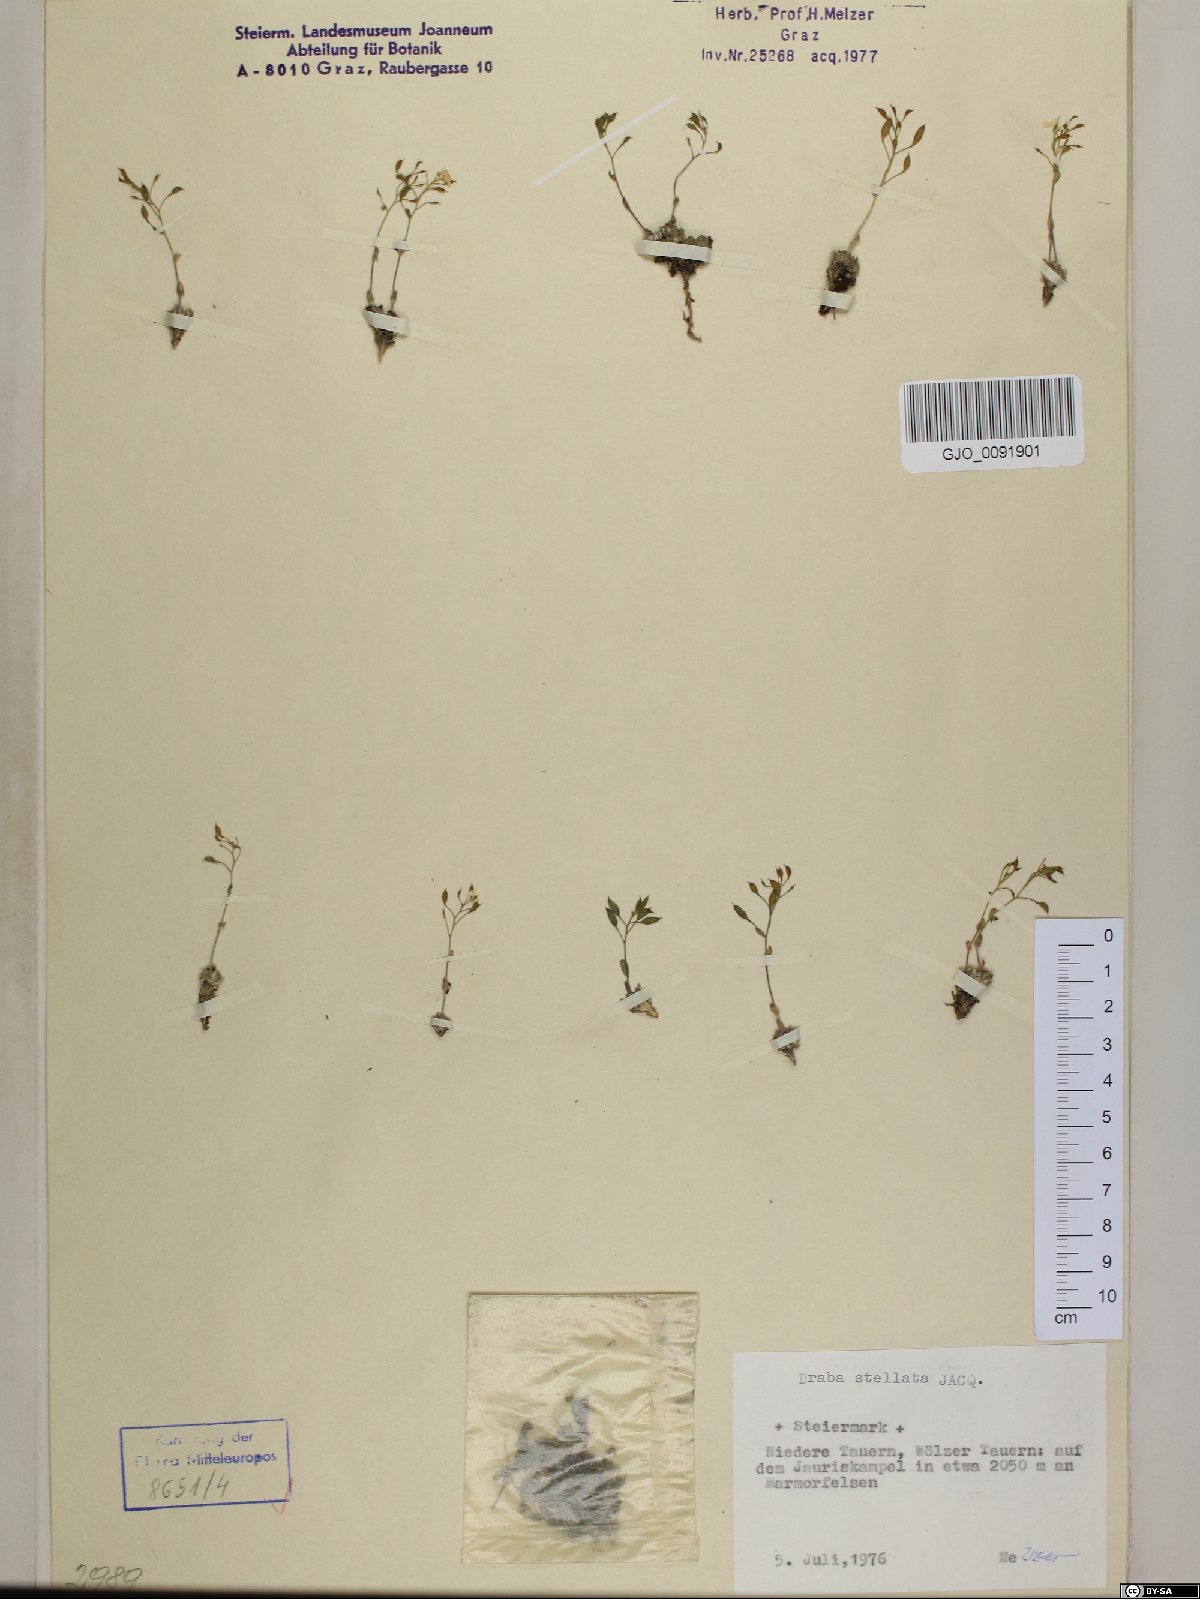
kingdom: Plantae
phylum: Tracheophyta
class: Magnoliopsida
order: Brassicales
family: Brassicaceae
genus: Draba
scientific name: Draba stellata
